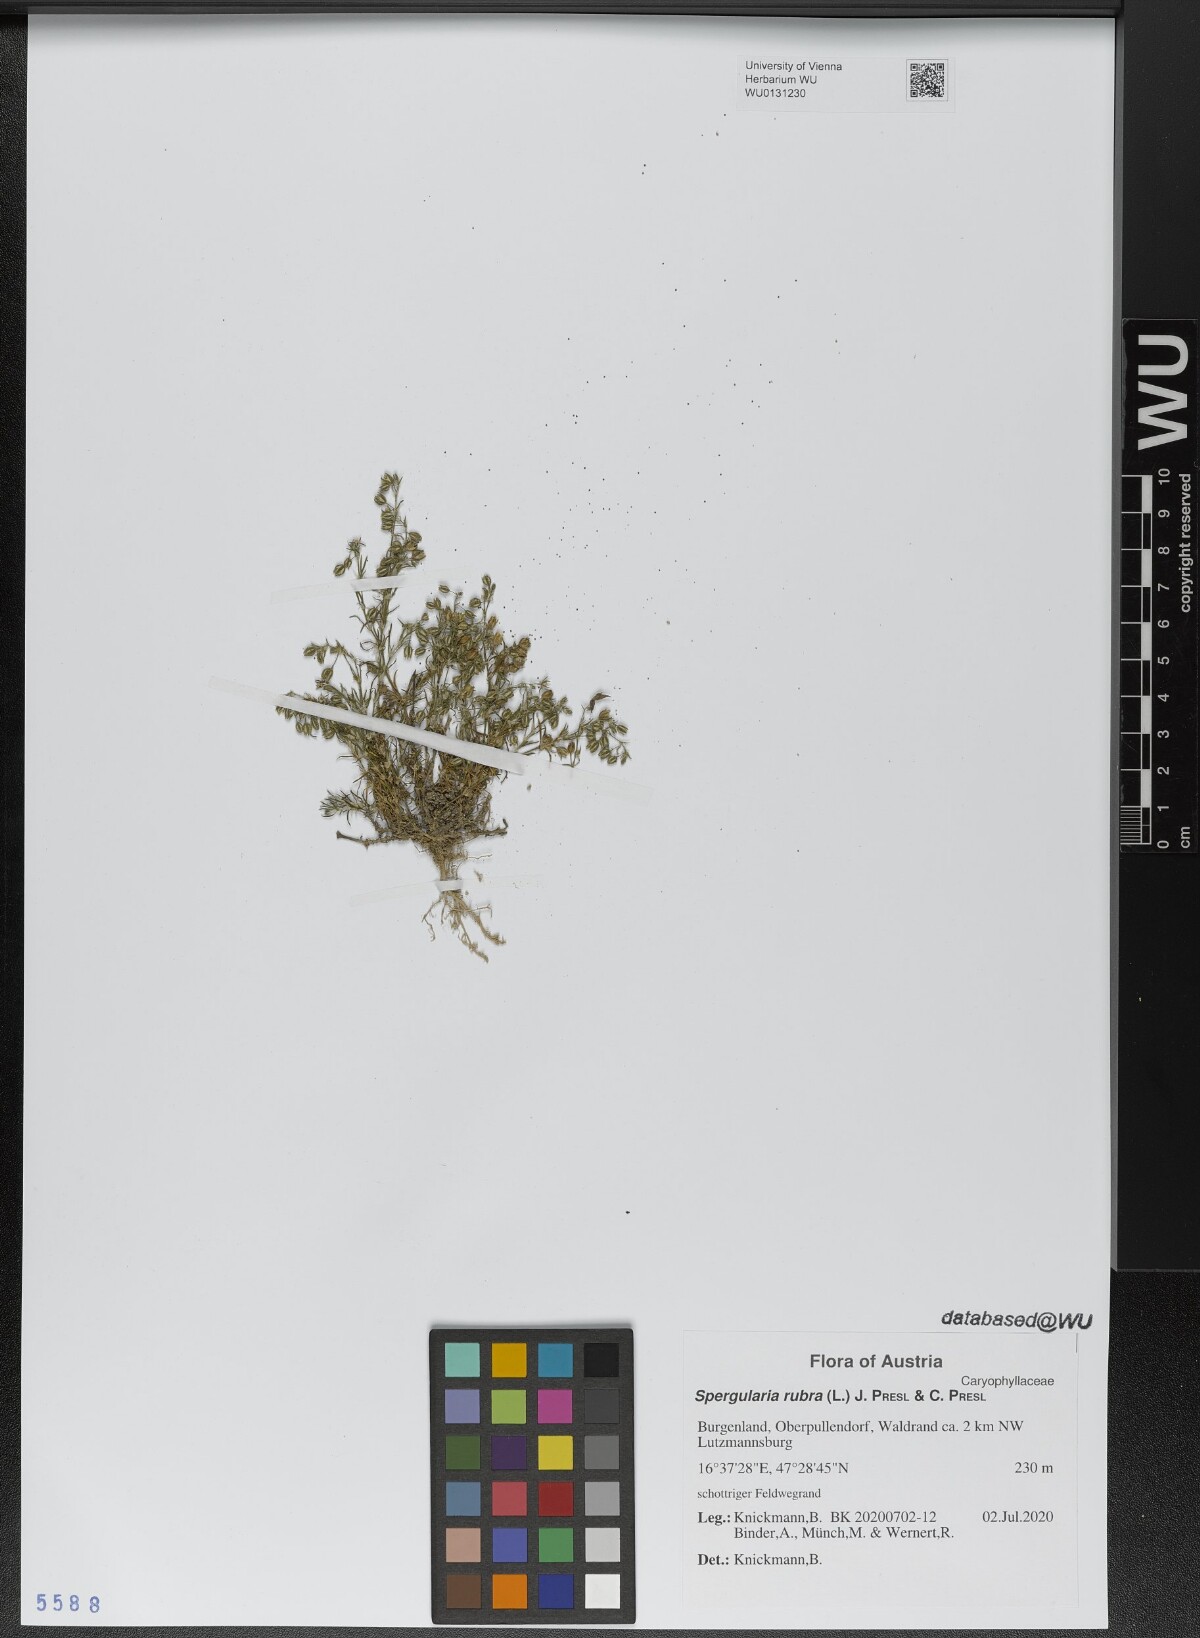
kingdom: Plantae
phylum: Tracheophyta
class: Magnoliopsida
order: Caryophyllales
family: Caryophyllaceae
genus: Spergularia
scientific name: Spergularia rubra
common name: Red sand-spurrey
